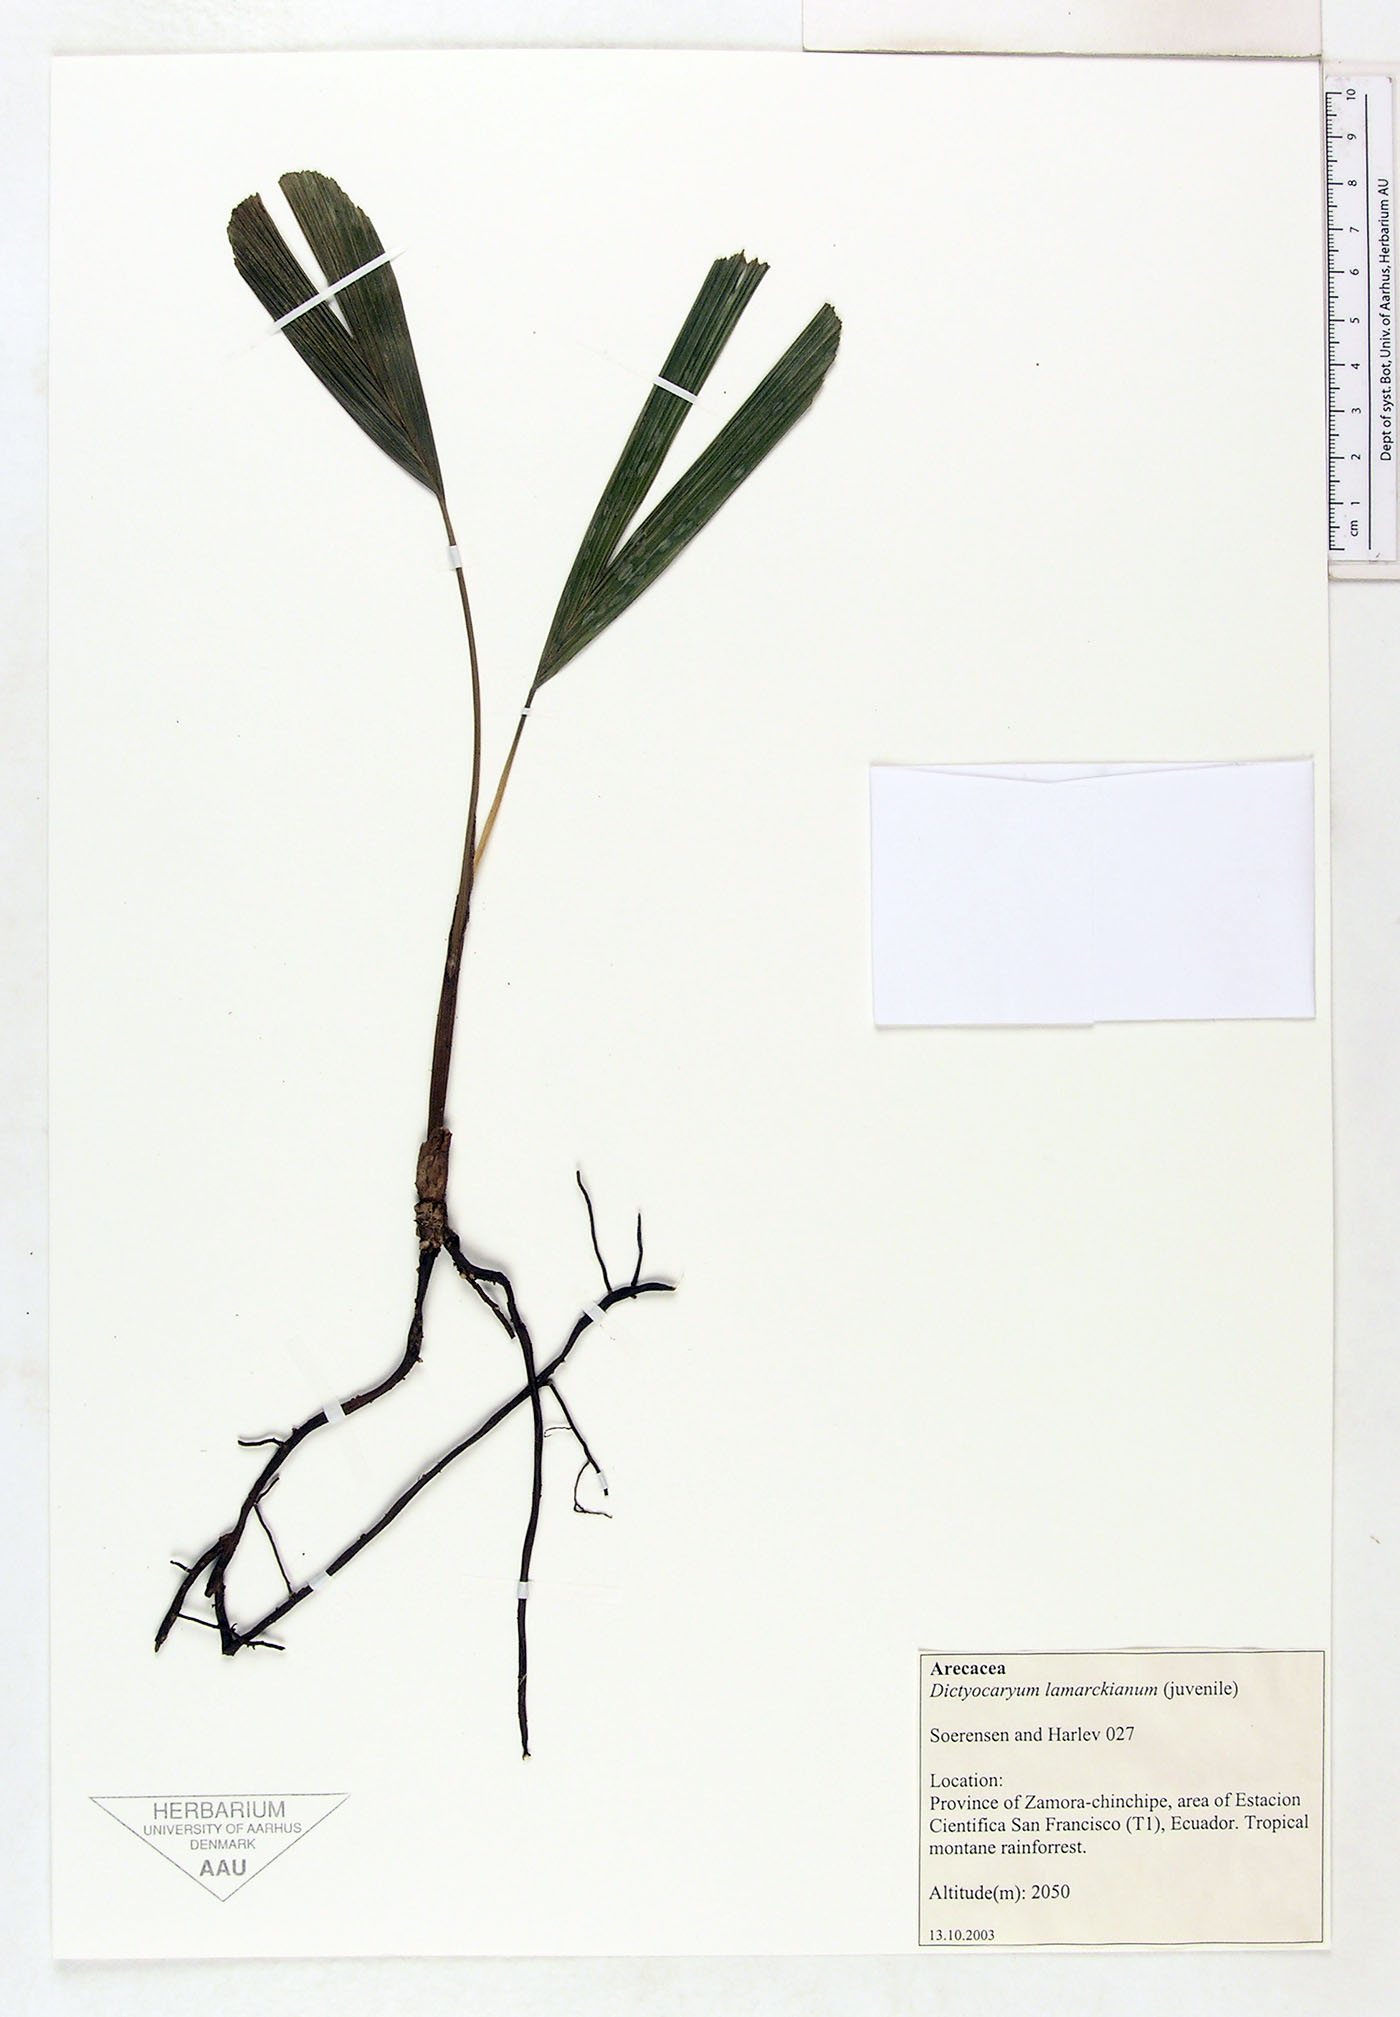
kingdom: Plantae
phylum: Tracheophyta
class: Liliopsida
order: Arecales
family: Arecaceae
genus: Dictyocaryum
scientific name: Dictyocaryum lamarckianum
